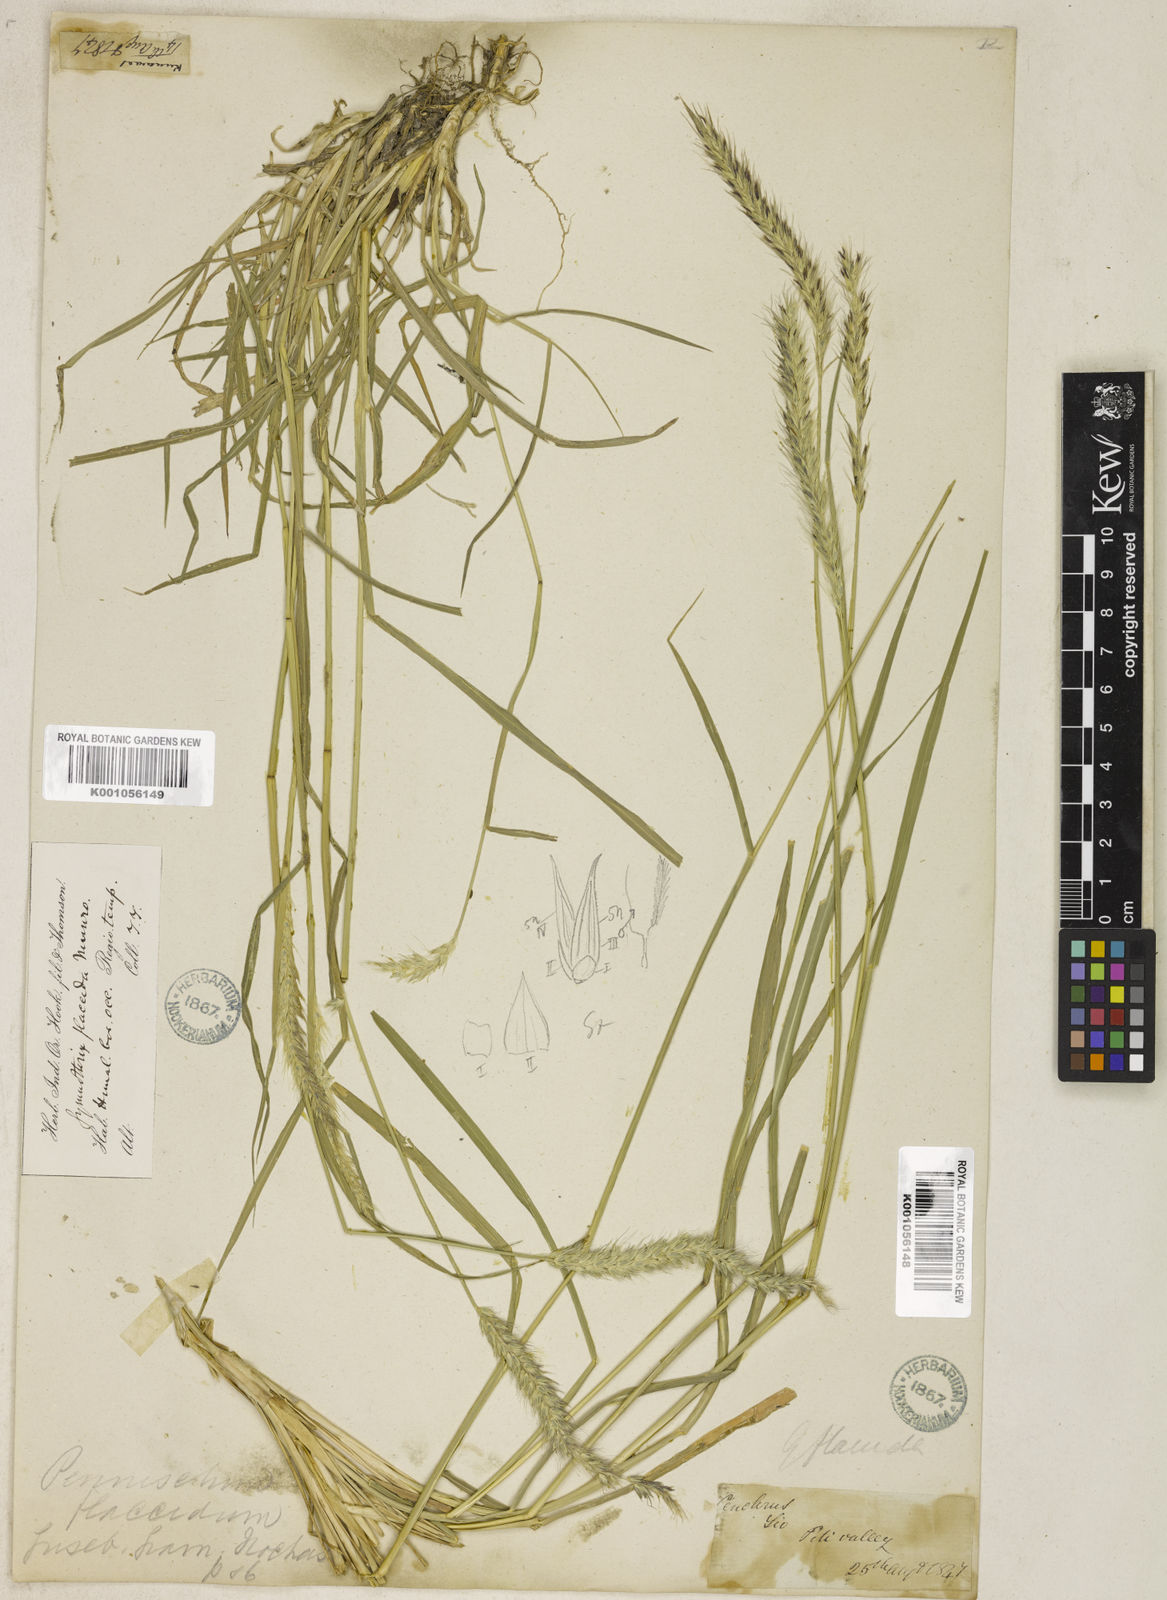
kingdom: Plantae
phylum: Tracheophyta
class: Liliopsida
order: Poales
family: Poaceae
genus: Cenchrus
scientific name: Cenchrus flaccidus
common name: Flaccid grass
